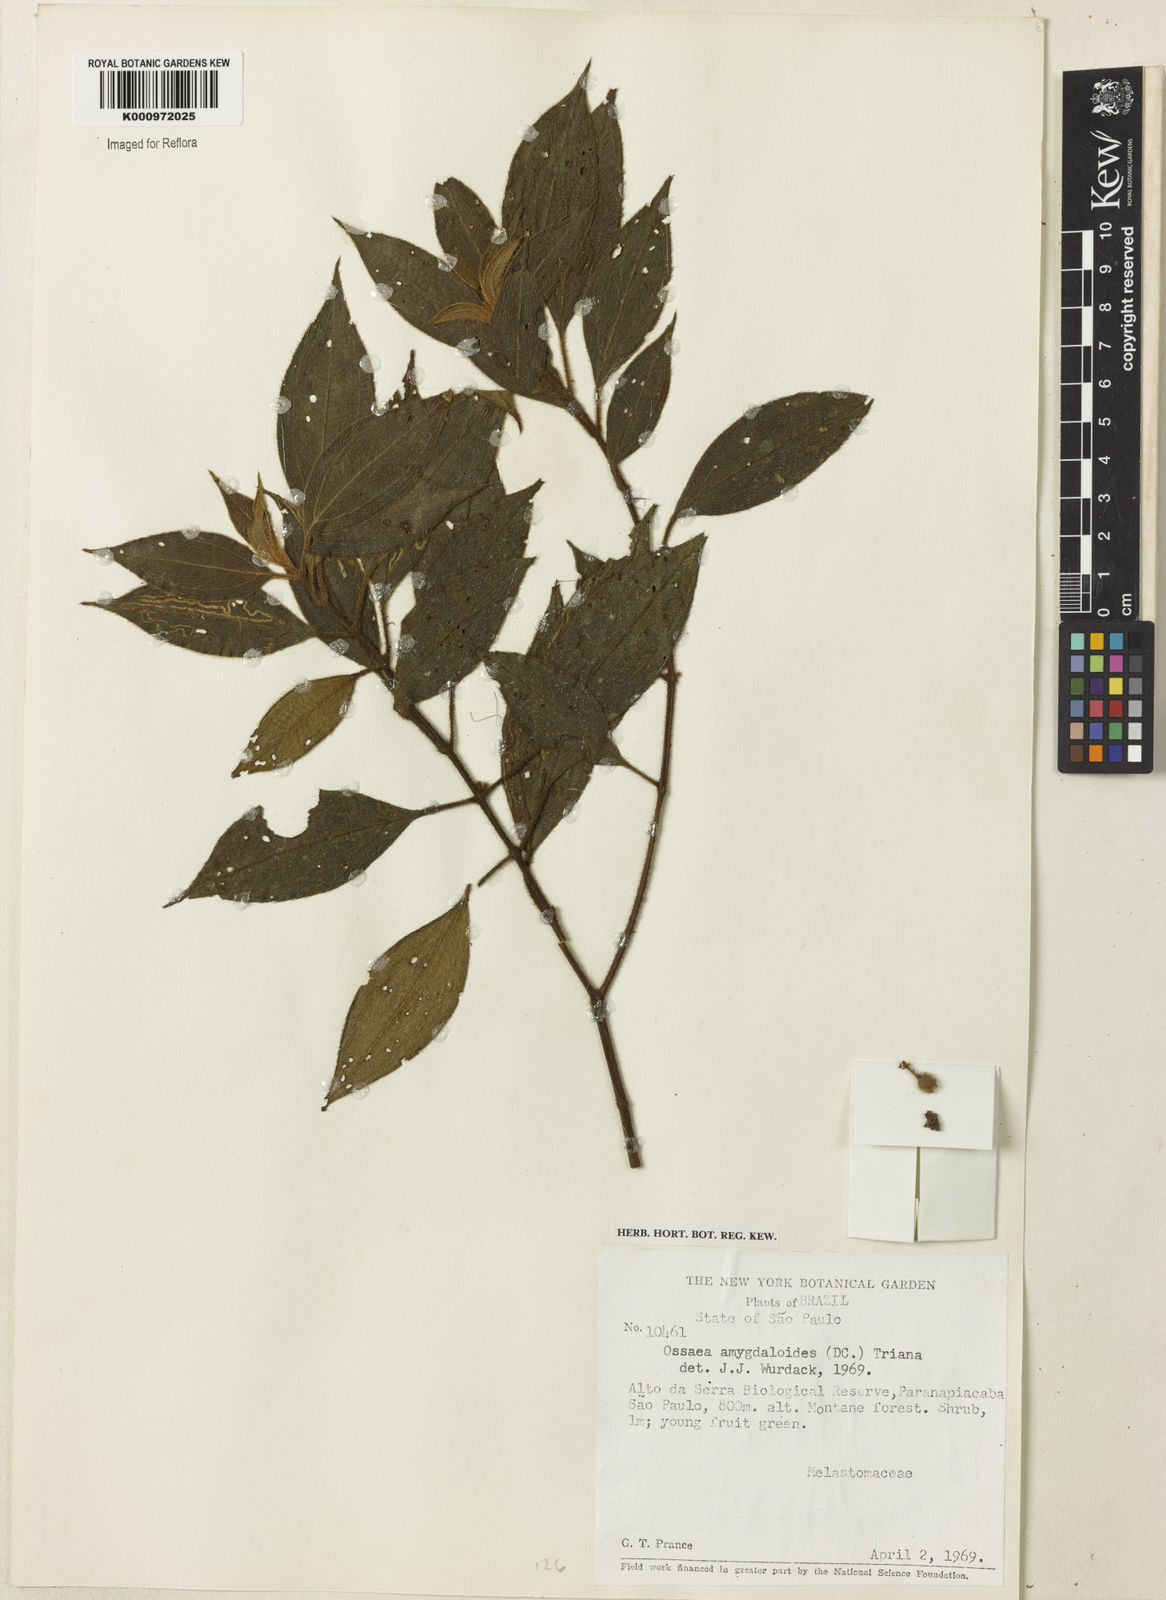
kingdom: Plantae
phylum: Tracheophyta
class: Magnoliopsida
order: Myrtales
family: Melastomataceae
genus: Miconia
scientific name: Miconia amygdaloides
